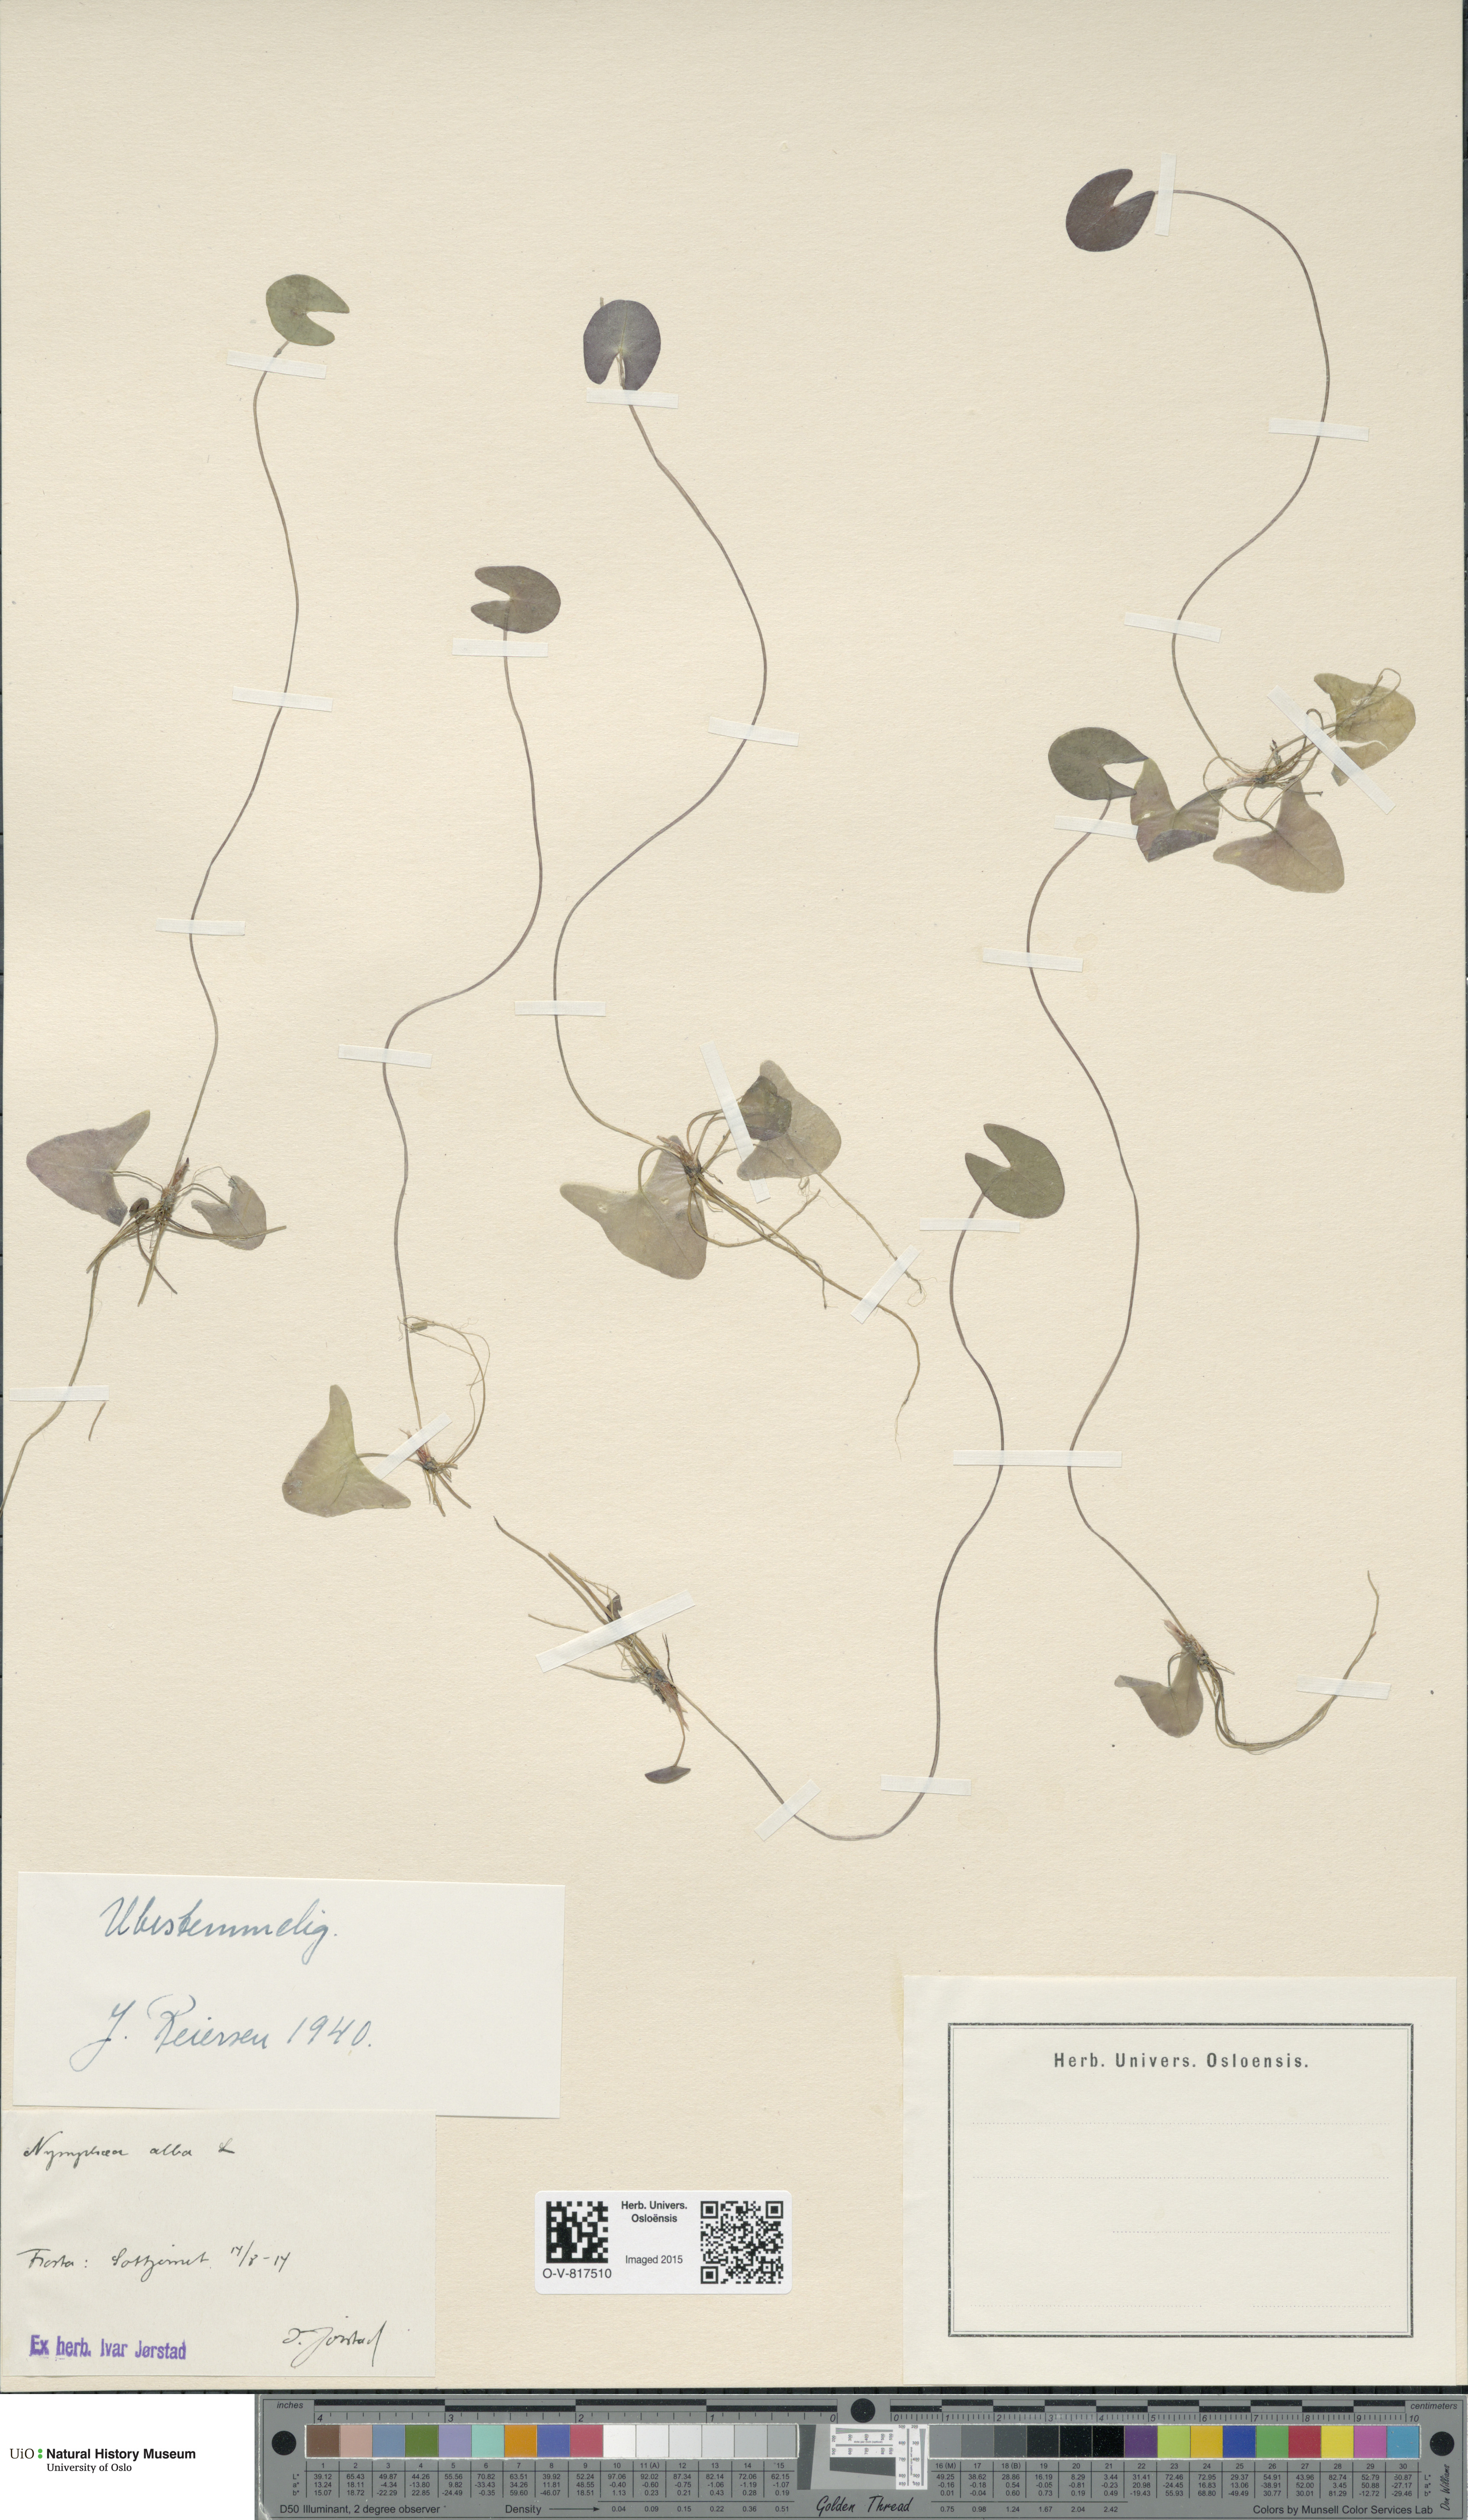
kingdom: Plantae
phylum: Tracheophyta
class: Magnoliopsida
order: Nymphaeales
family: Nymphaeaceae
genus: Nymphaea
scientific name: Nymphaea alba
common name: White water-lily
